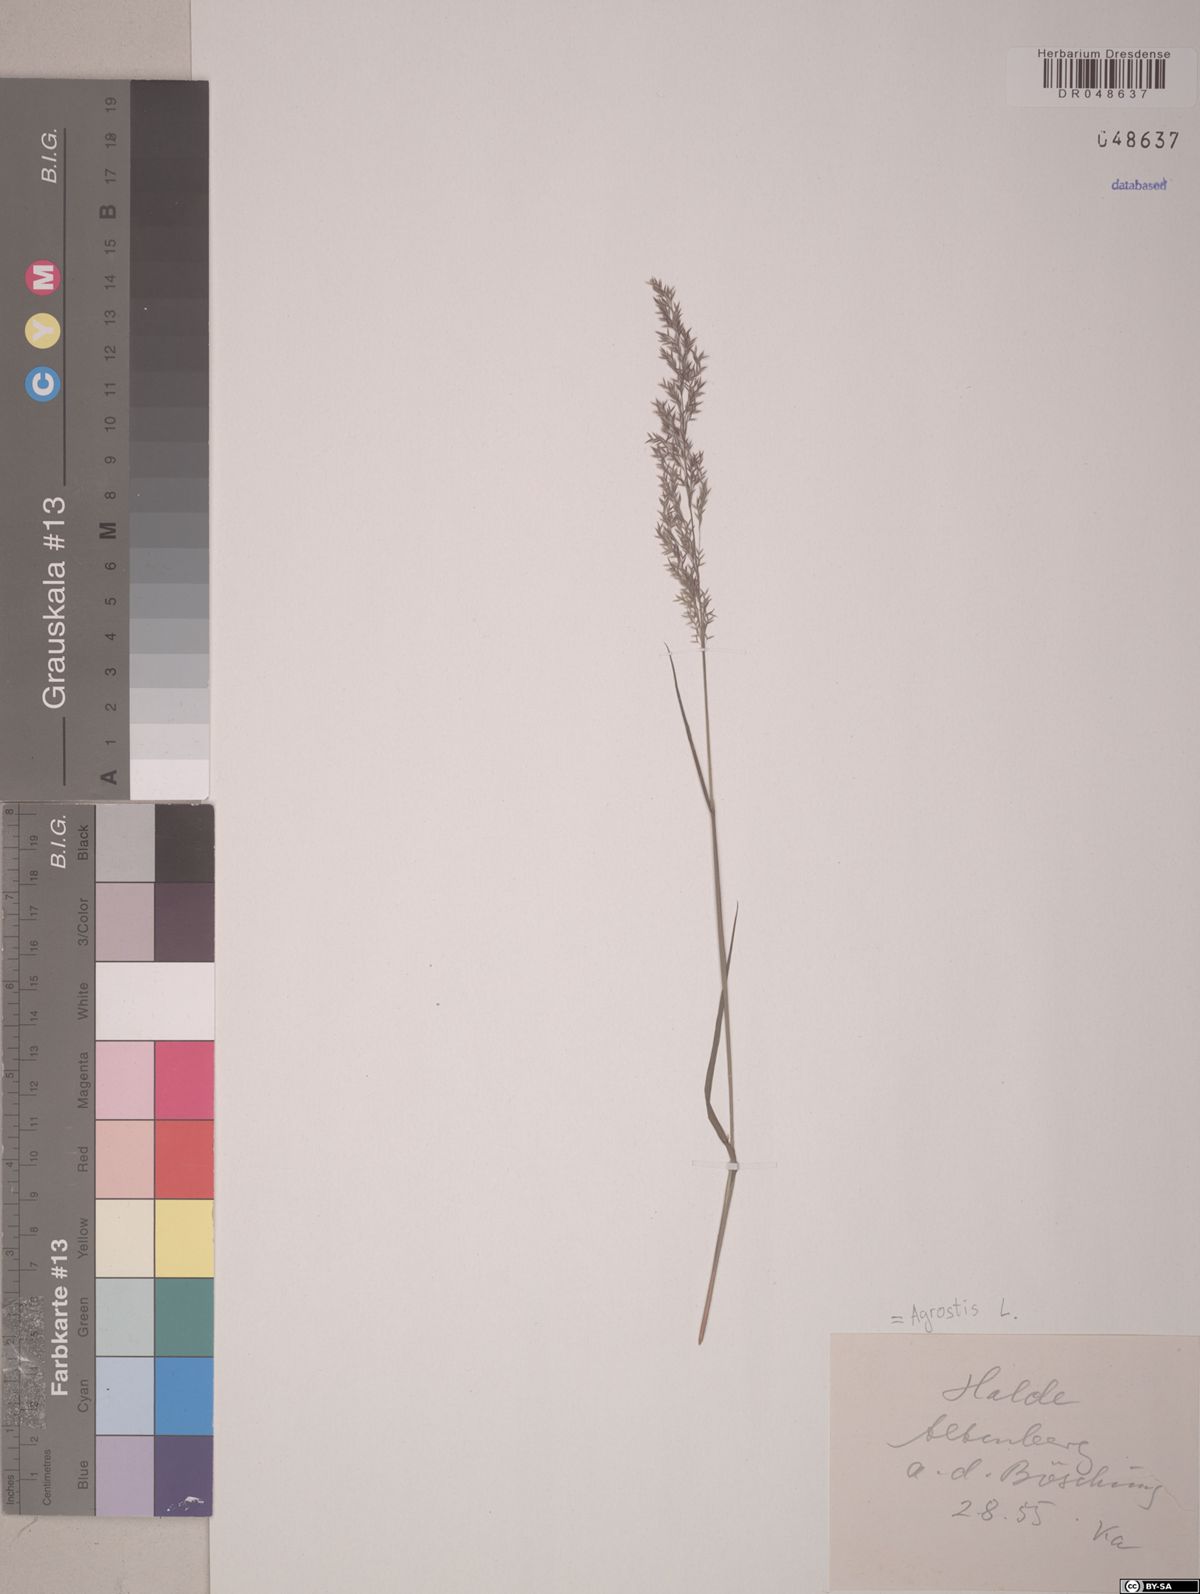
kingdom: Plantae
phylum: Tracheophyta
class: Liliopsida
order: Poales
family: Poaceae
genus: Agrostis
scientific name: Agrostis capillaris
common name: Colonial bentgrass
